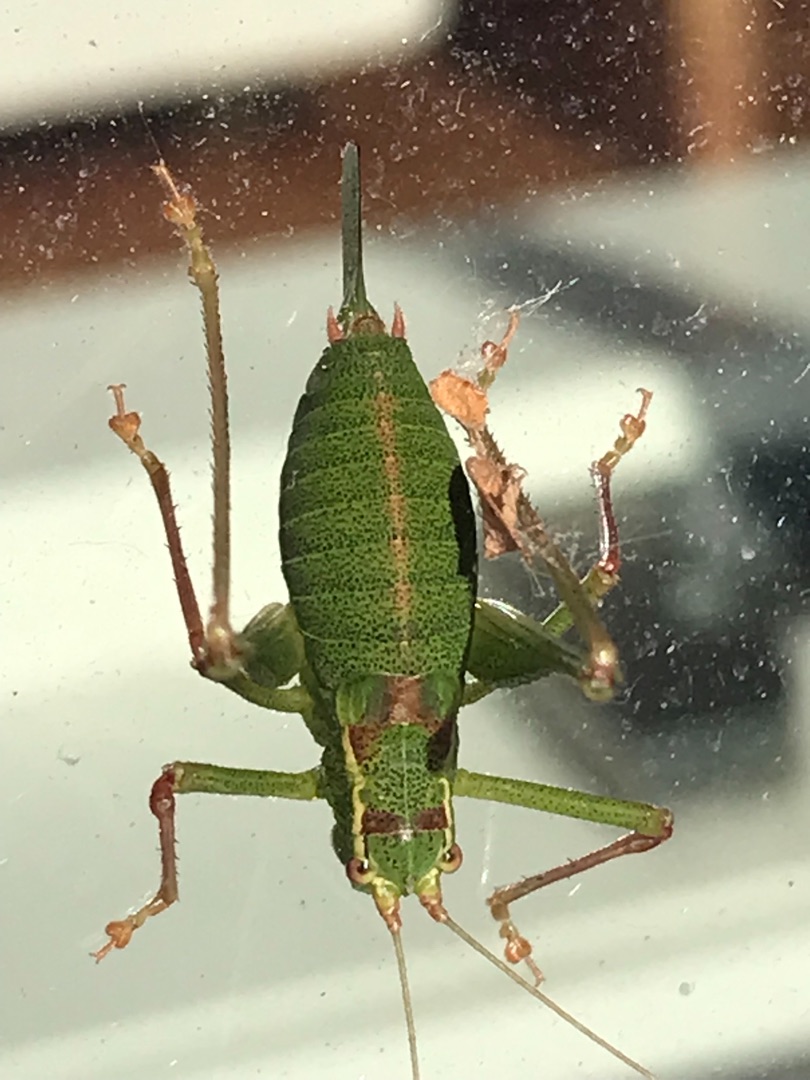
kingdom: Animalia
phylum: Arthropoda
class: Insecta
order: Orthoptera
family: Tettigoniidae
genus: Leptophyes
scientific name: Leptophyes punctatissima
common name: Krumknivgræshoppe
